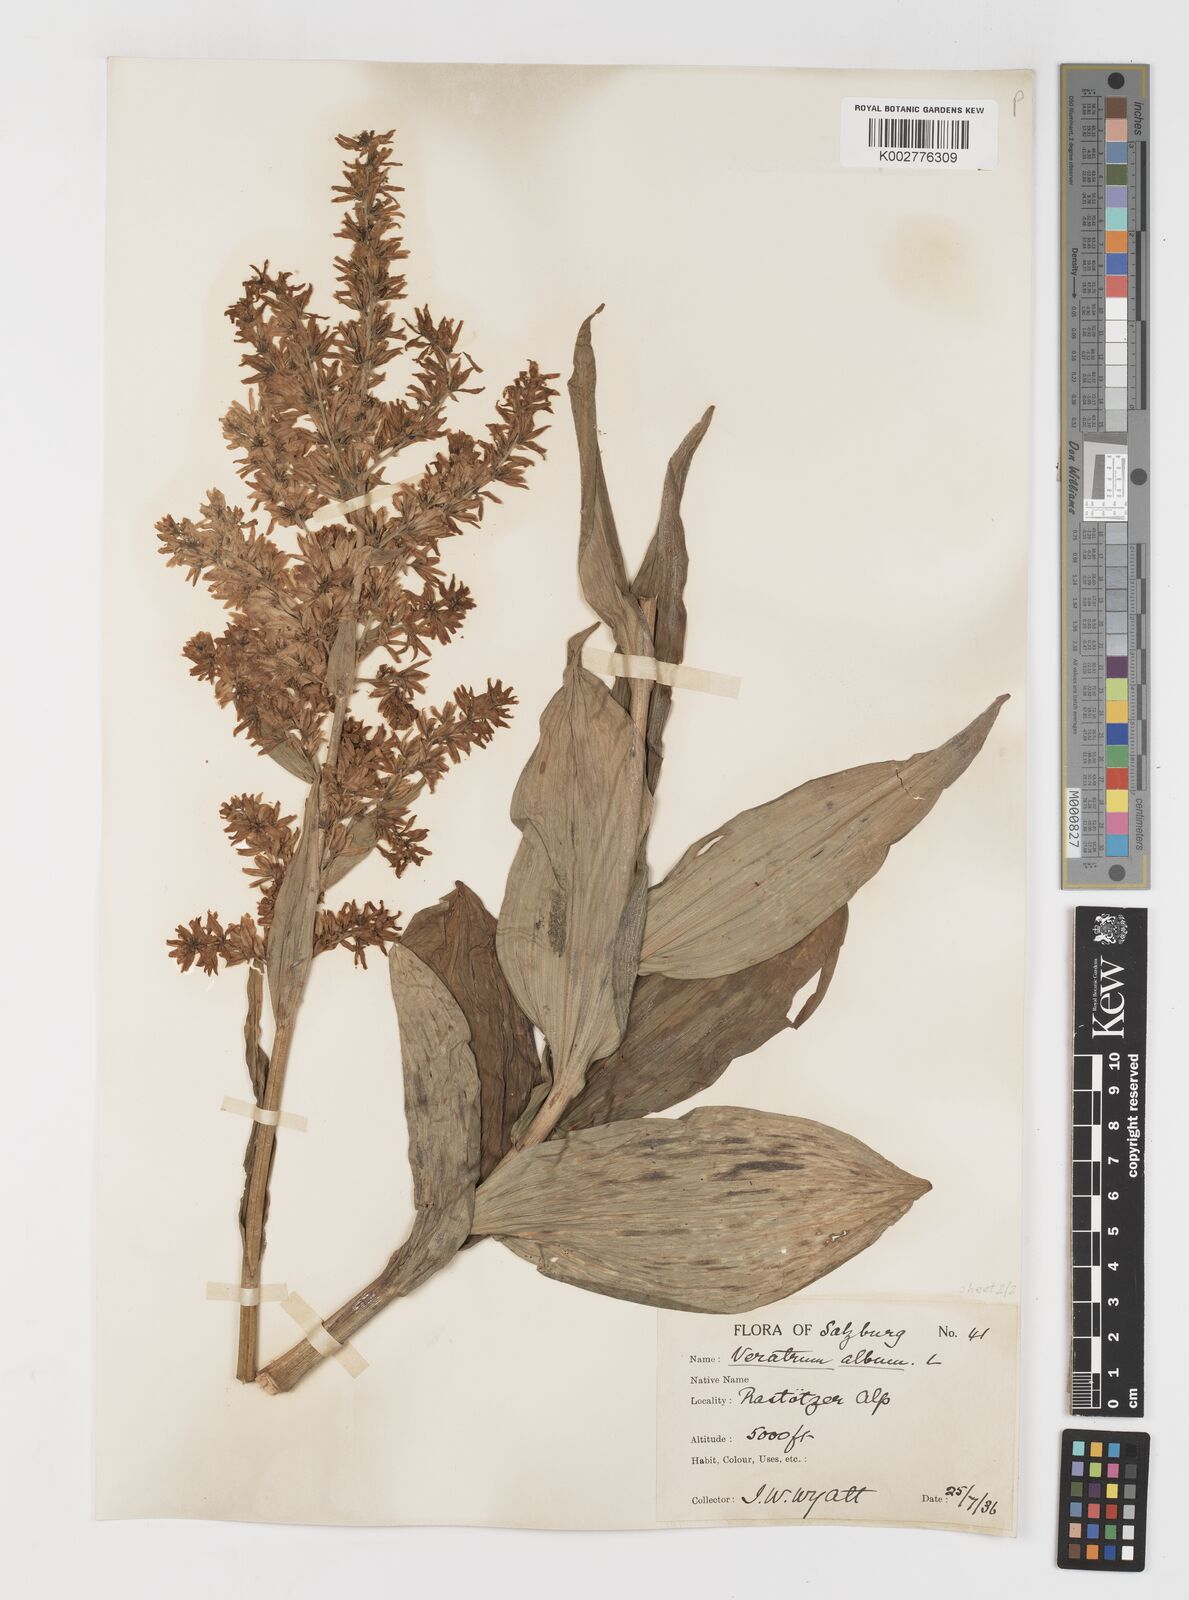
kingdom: Plantae
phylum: Tracheophyta
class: Liliopsida
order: Liliales
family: Melanthiaceae
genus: Veratrum
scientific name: Veratrum album
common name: White veratrum
